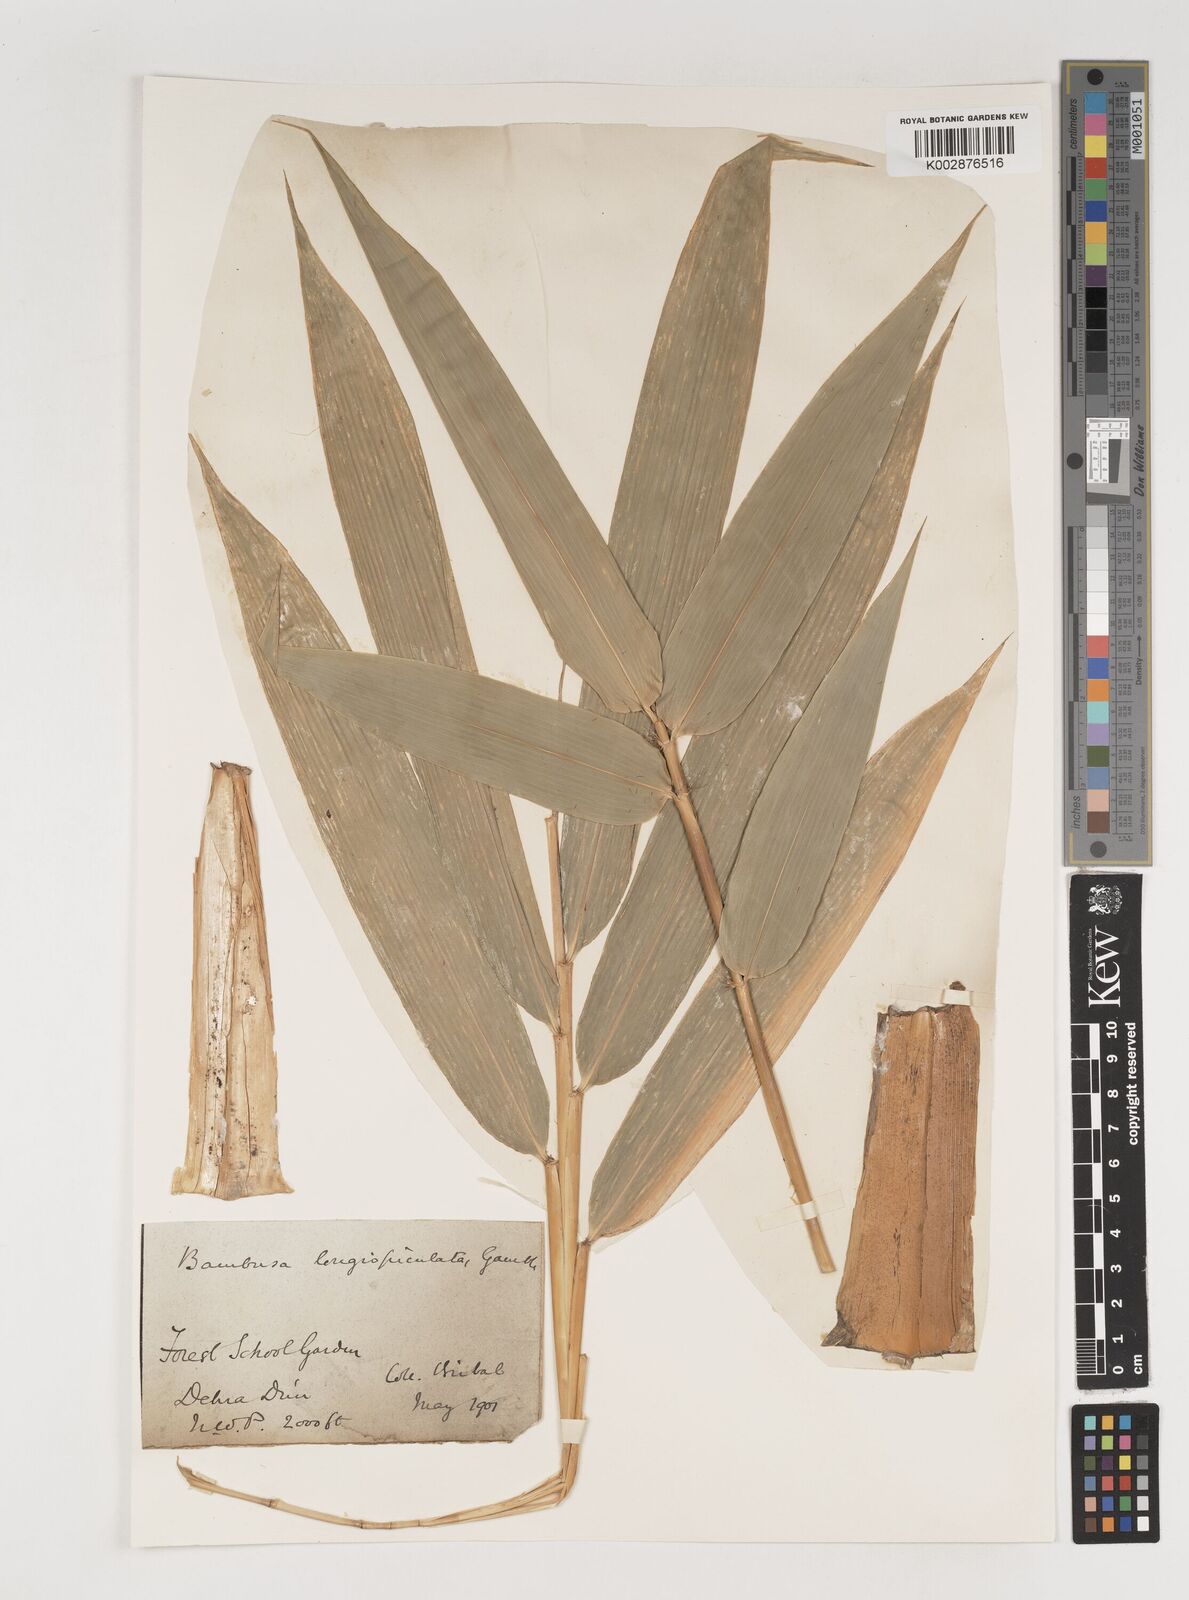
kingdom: Plantae
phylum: Tracheophyta
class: Liliopsida
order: Poales
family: Poaceae
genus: Bambusa
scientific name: Bambusa longispiculata
